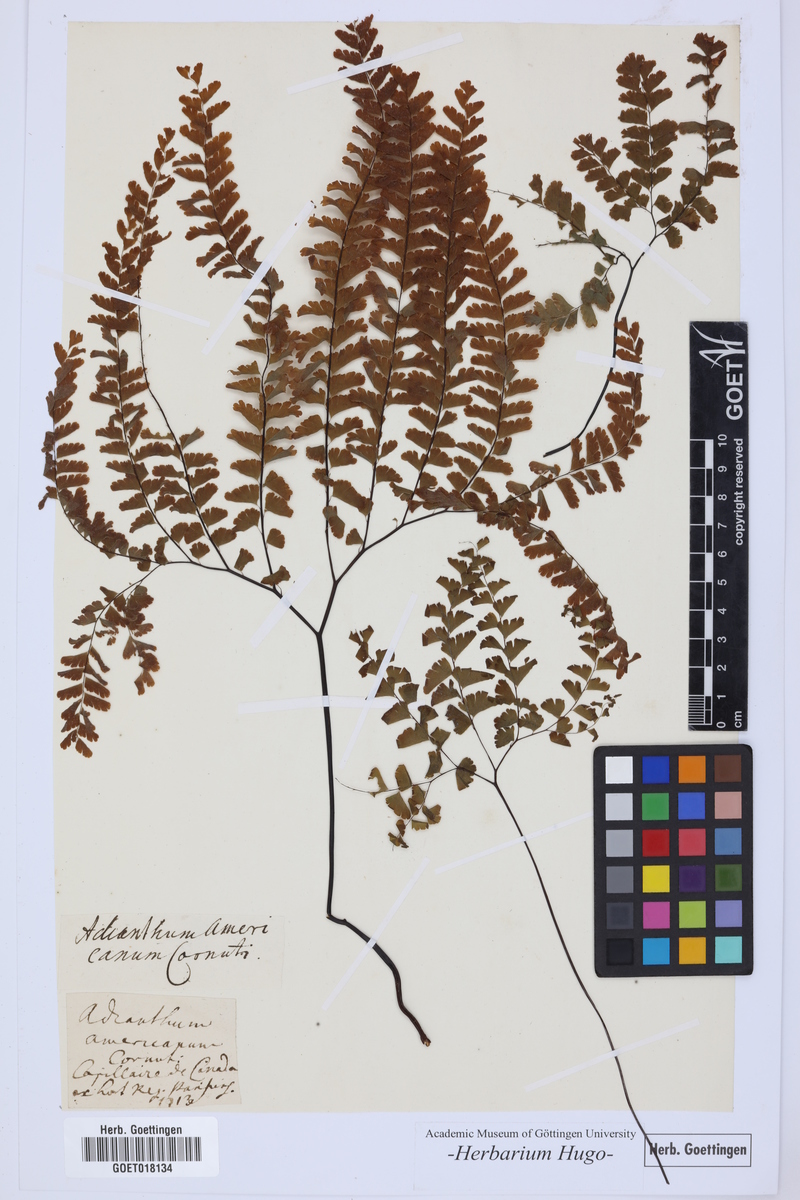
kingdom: Plantae
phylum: Tracheophyta
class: Polypodiopsida
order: Polypodiales
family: Pteridaceae
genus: Adiantum
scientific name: Adiantum pedatum
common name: Five-finger fern
